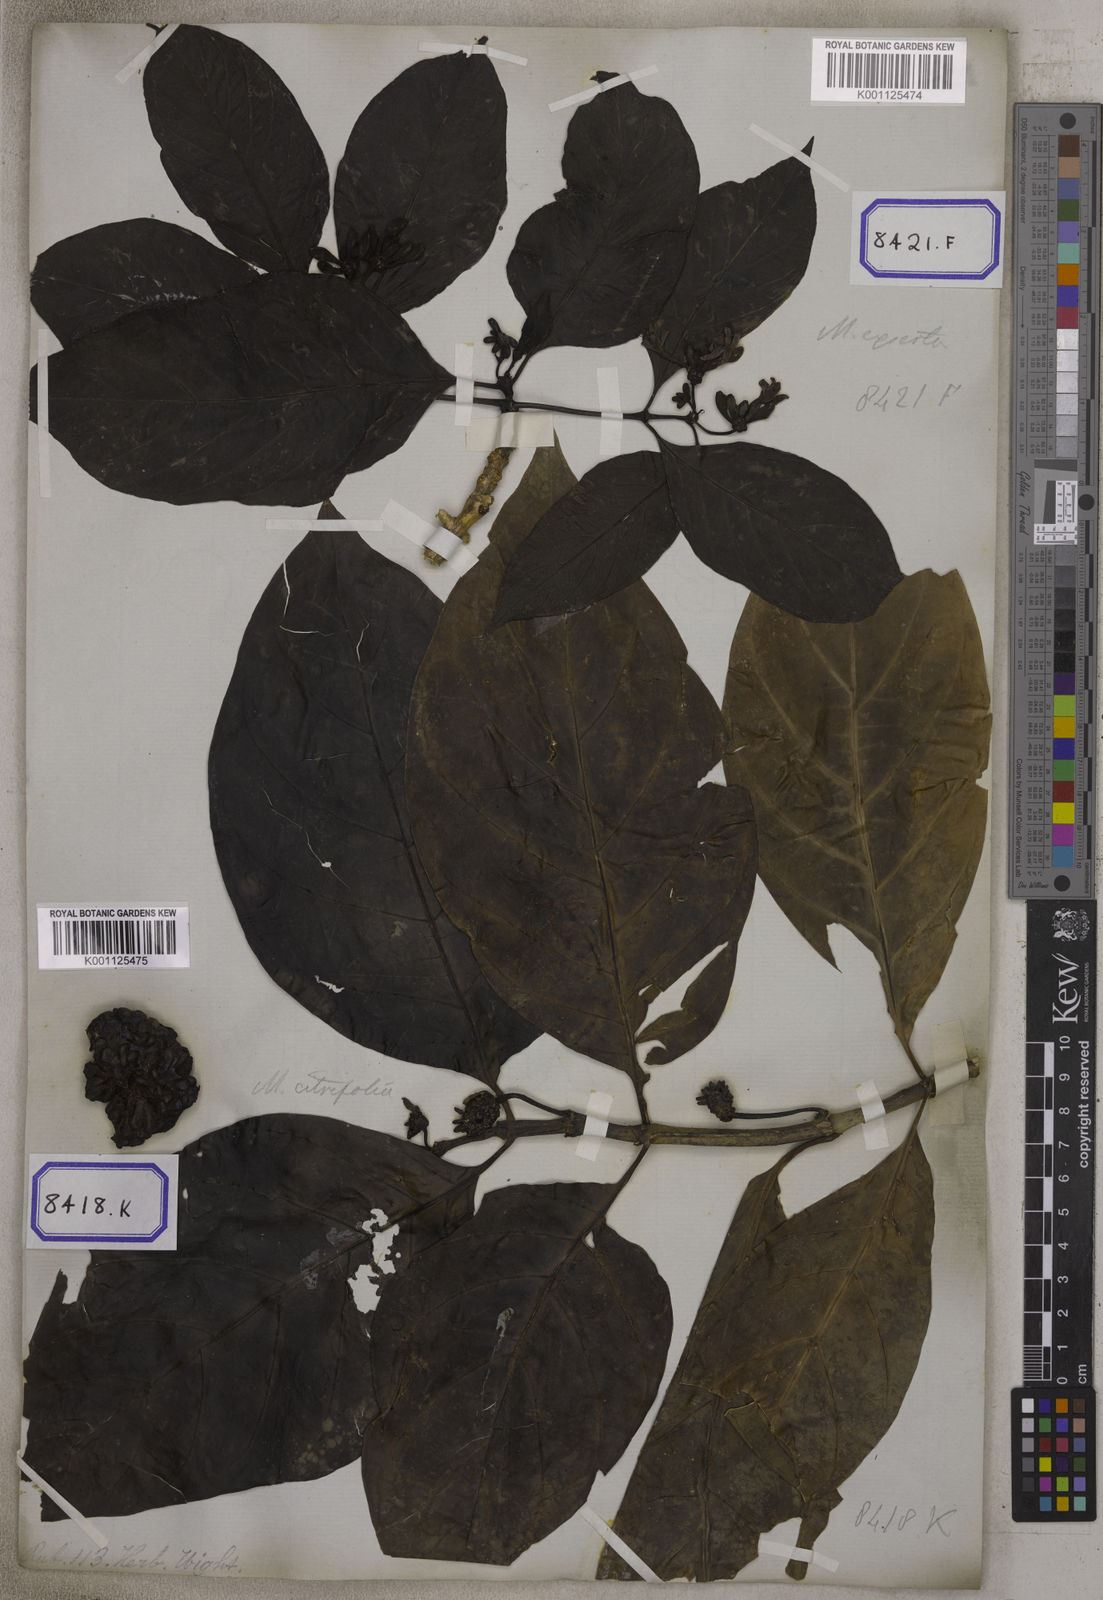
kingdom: Plantae
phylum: Tracheophyta
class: Magnoliopsida
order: Gentianales
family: Rubiaceae
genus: Morinda
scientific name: Morinda citrifolia
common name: Indian-mulberry
